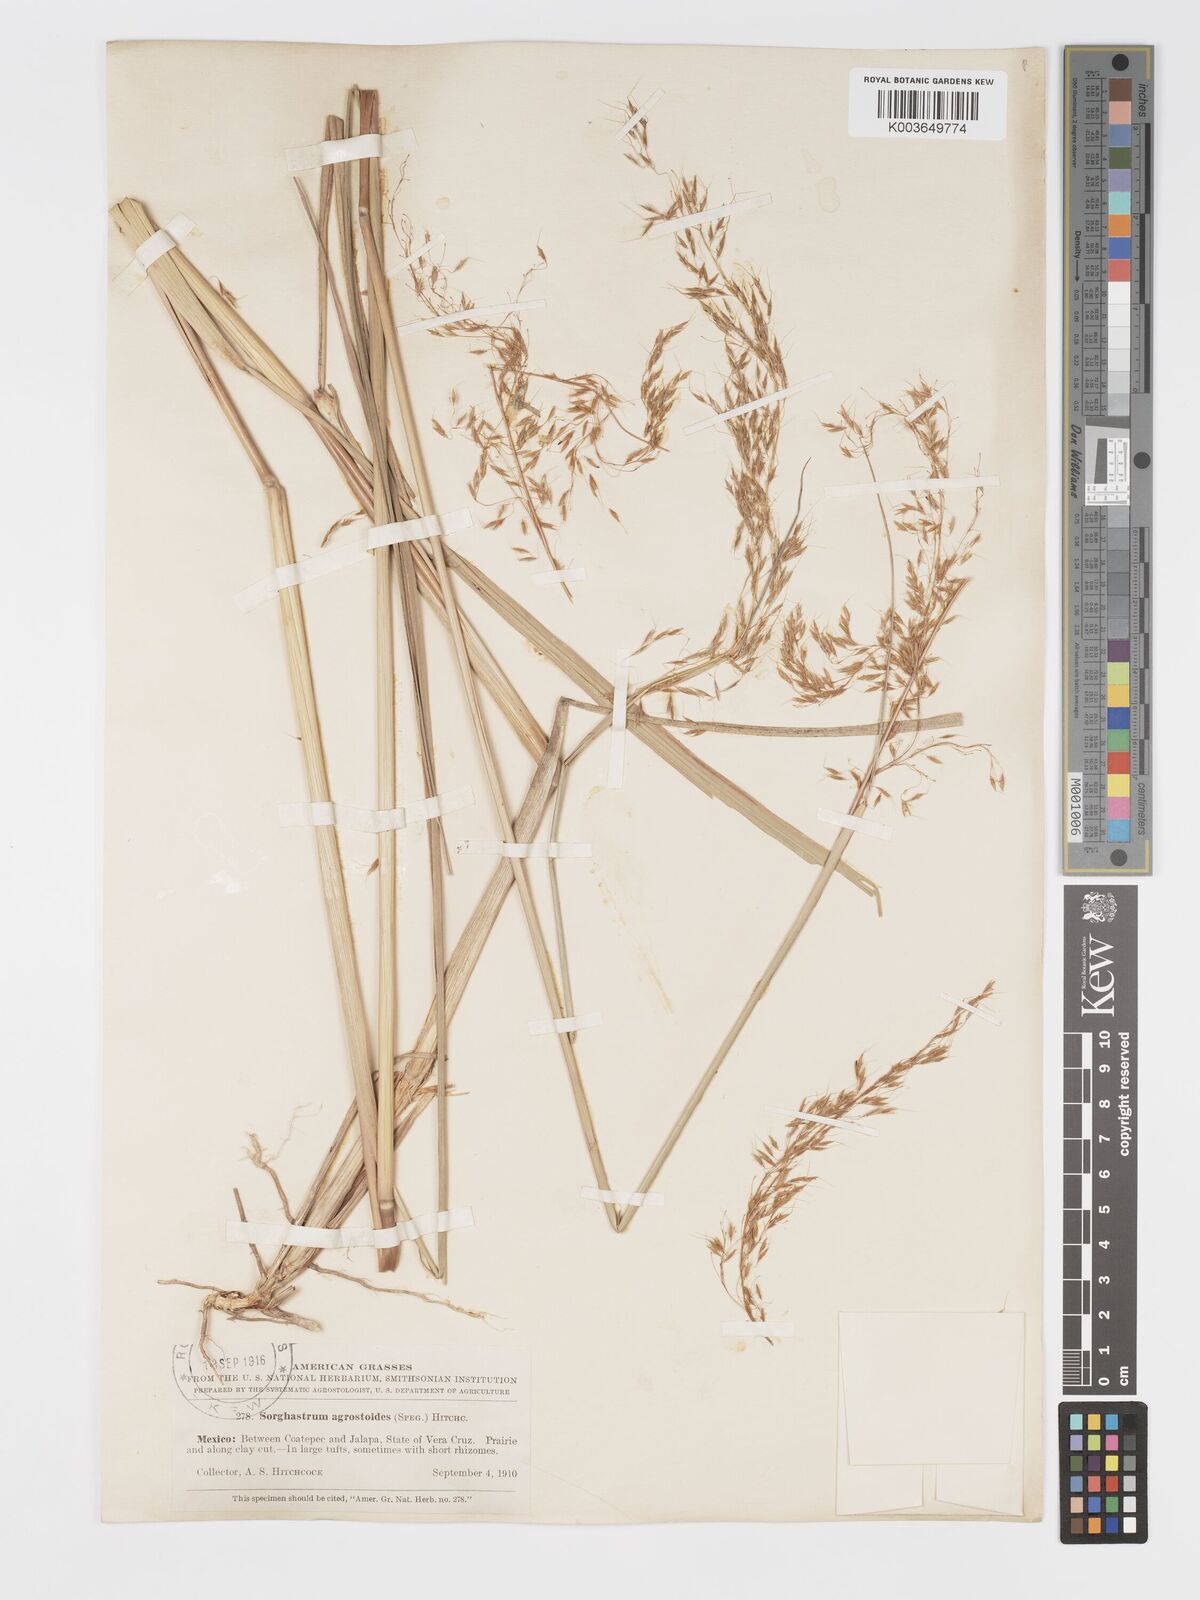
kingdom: Plantae
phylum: Tracheophyta
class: Liliopsida
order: Poales
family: Poaceae
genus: Sorghastrum
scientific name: Sorghastrum setosum
